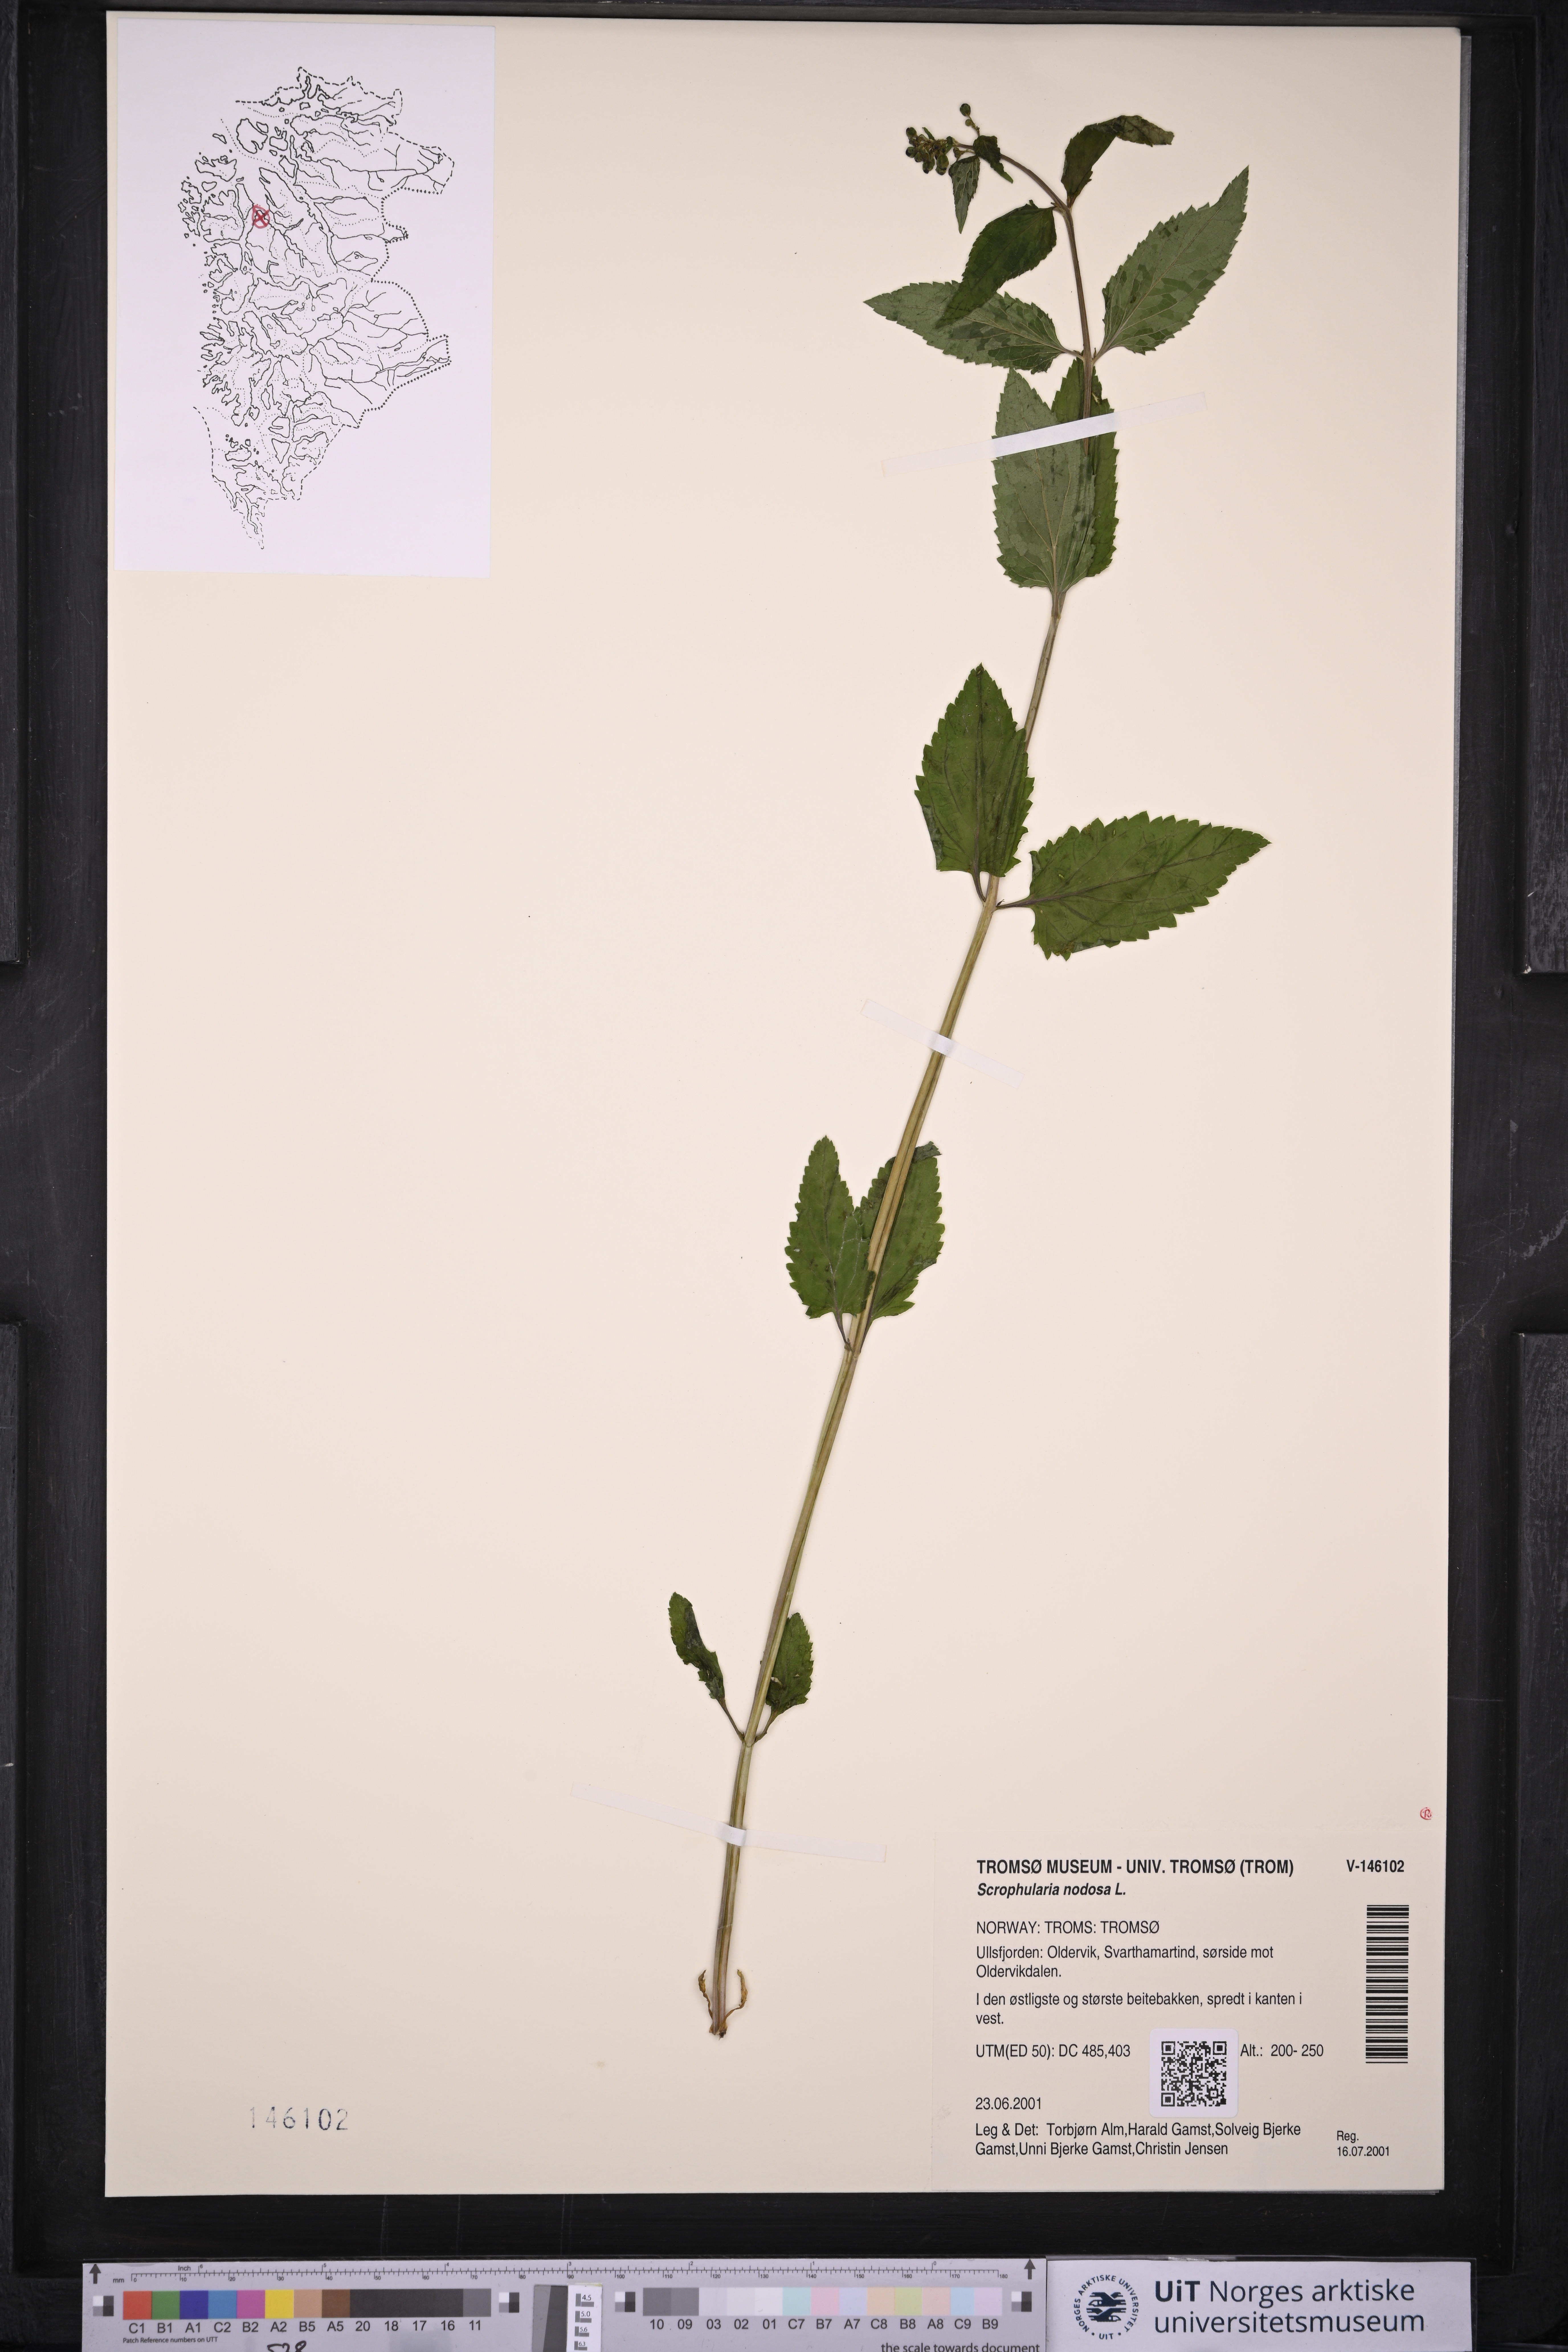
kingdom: Plantae
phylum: Tracheophyta
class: Magnoliopsida
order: Lamiales
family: Scrophulariaceae
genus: Scrophularia
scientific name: Scrophularia nodosa
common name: Common figwort
